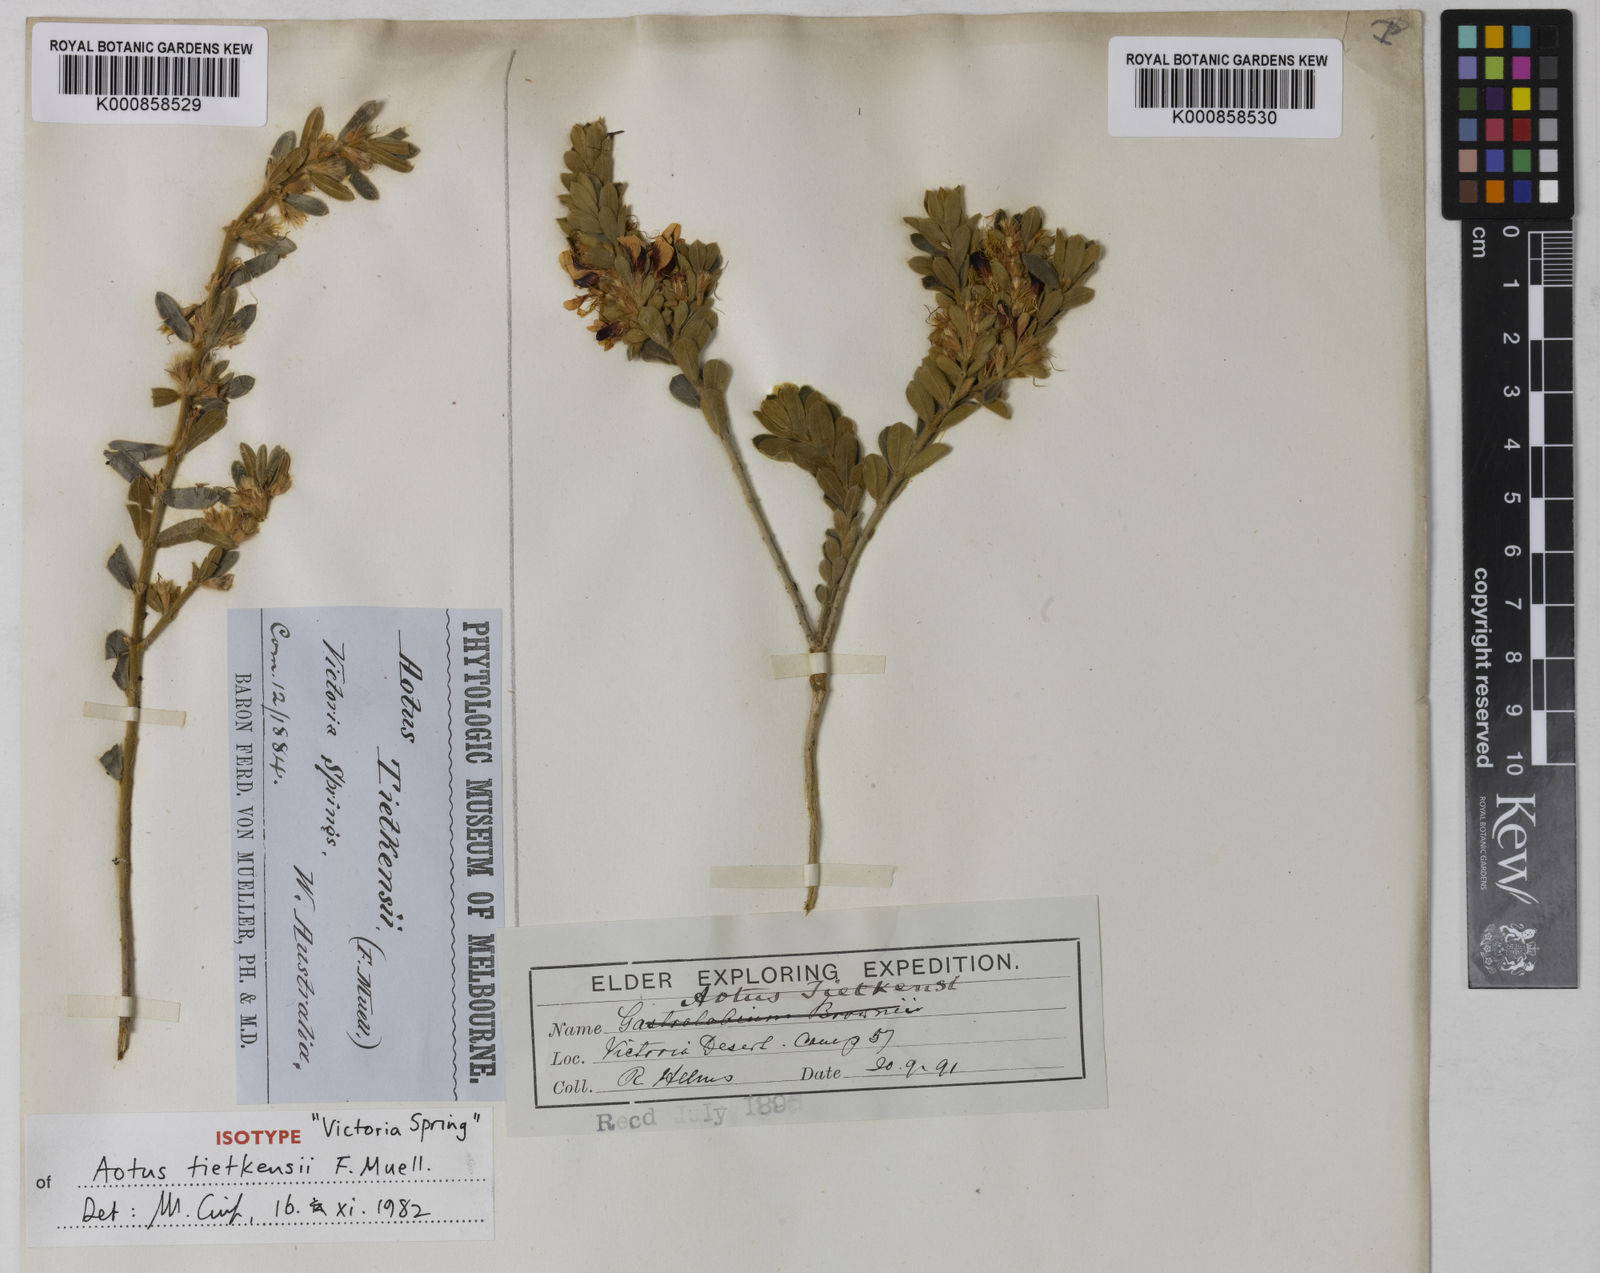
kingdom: Plantae
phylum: Tracheophyta
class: Magnoliopsida
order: Fabales
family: Fabaceae
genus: Aotus
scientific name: Aotus tietkensii
